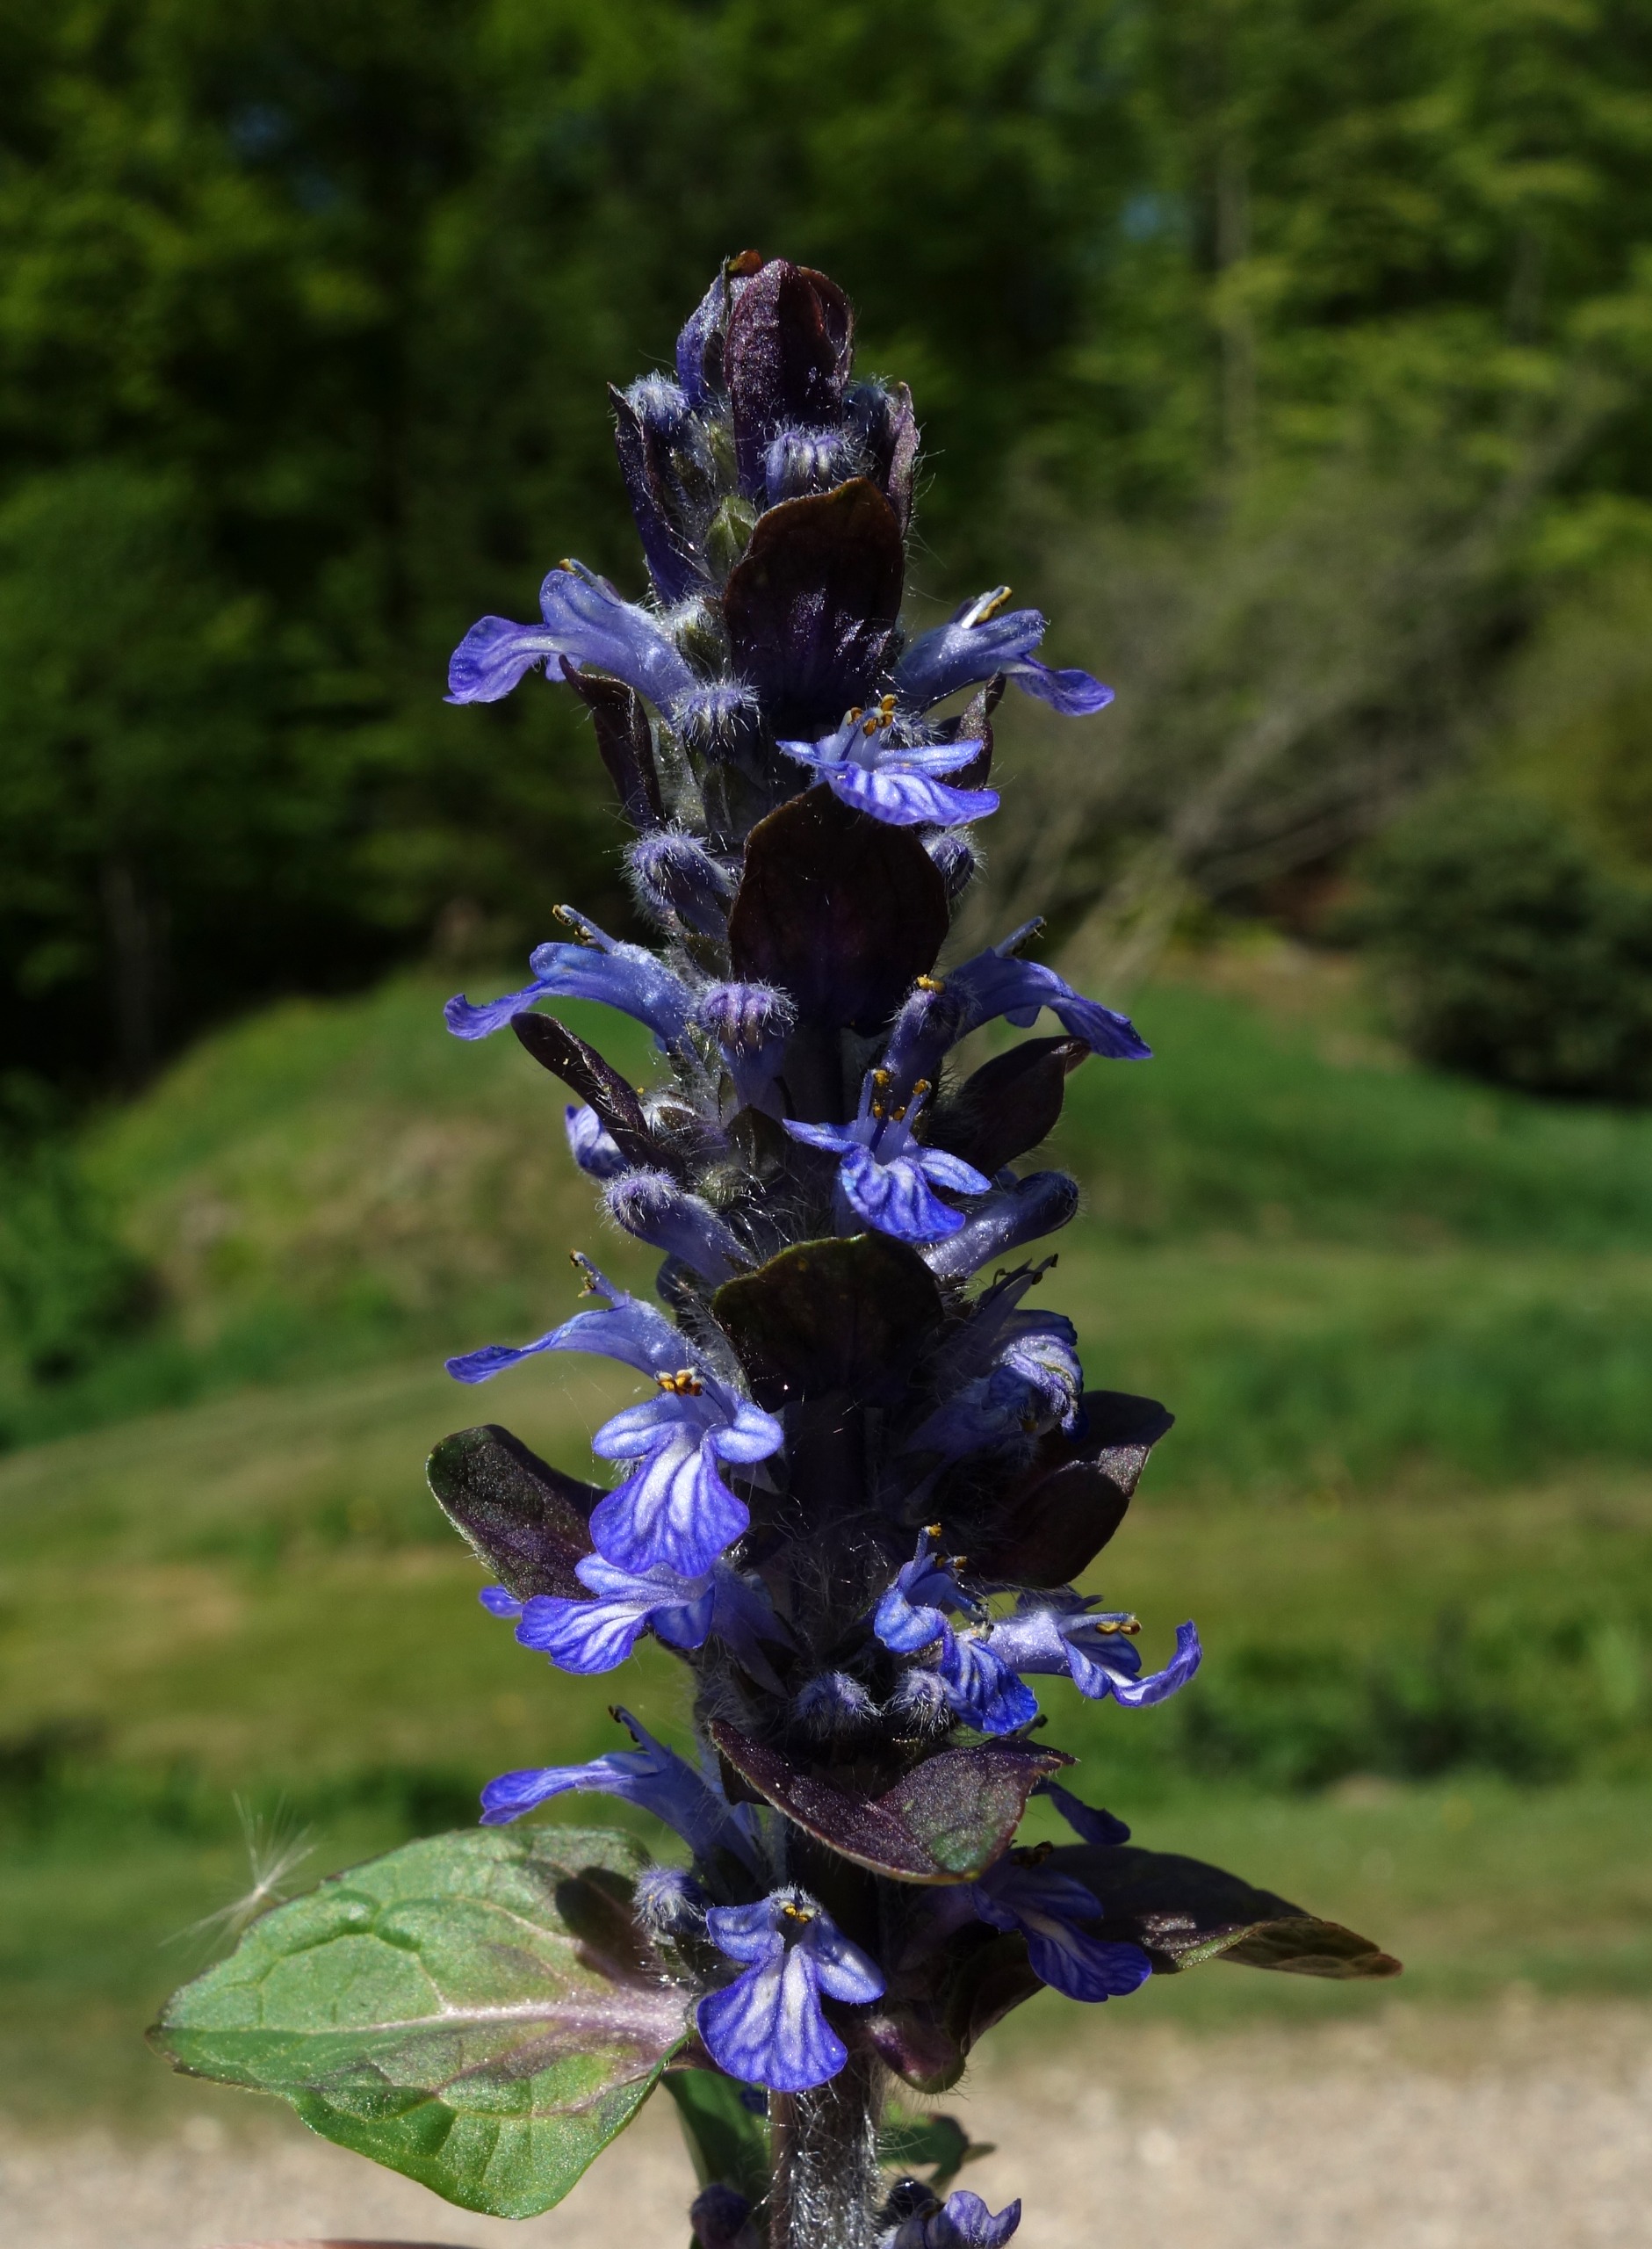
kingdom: Plantae
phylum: Tracheophyta
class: Magnoliopsida
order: Lamiales
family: Lamiaceae
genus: Ajuga
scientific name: Ajuga reptans
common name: Krybende læbeløs
